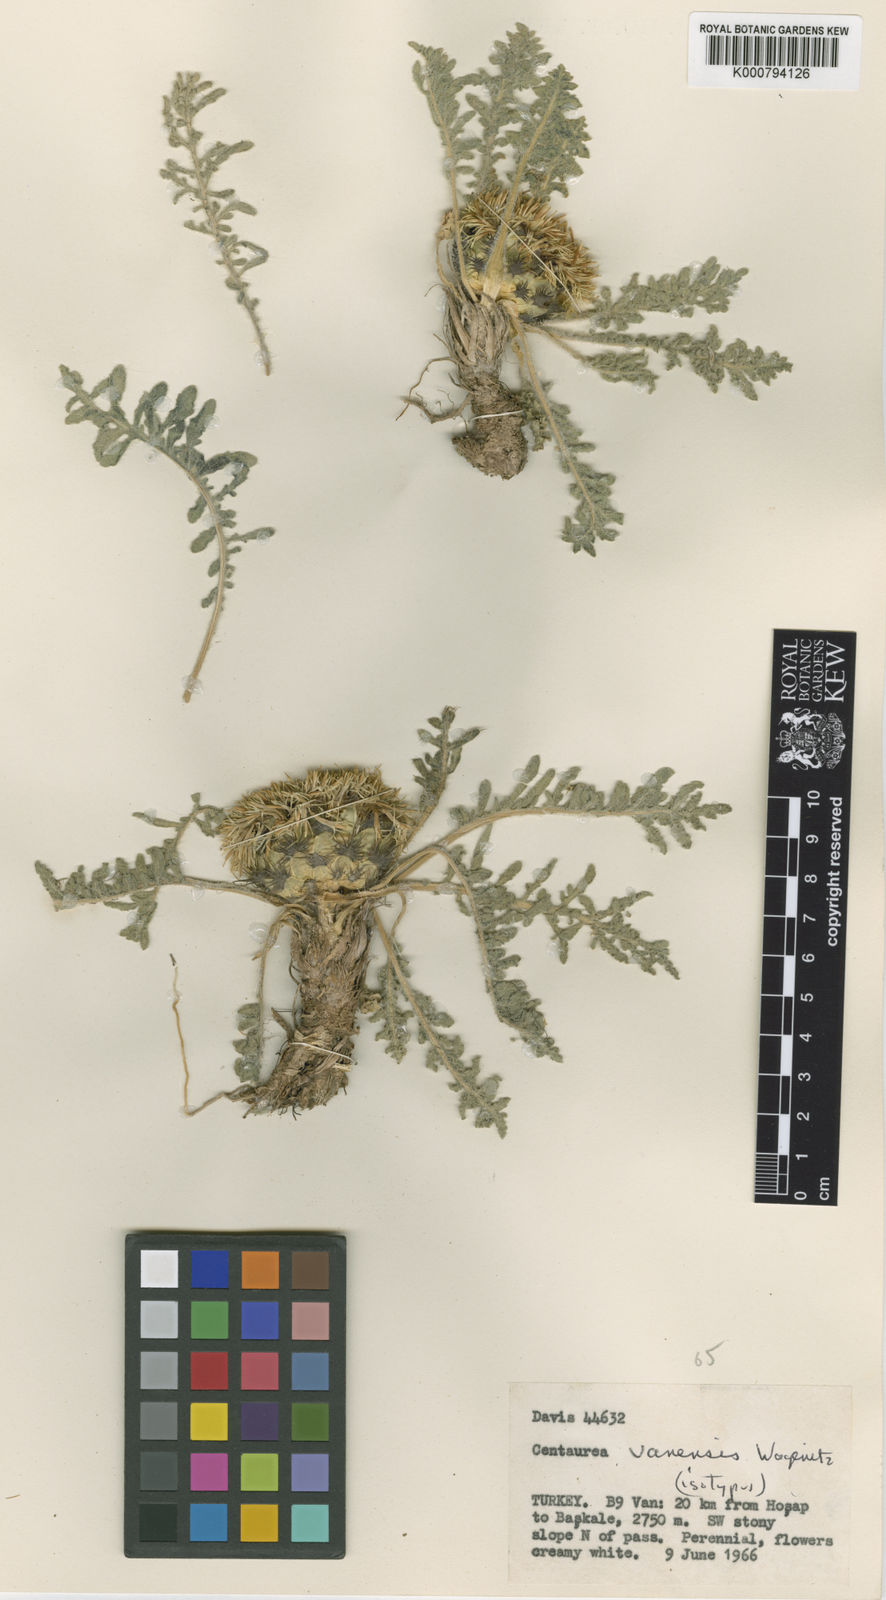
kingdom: Plantae
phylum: Tracheophyta
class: Magnoliopsida
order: Asterales
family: Asteraceae
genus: Centaurea
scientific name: Centaurea vanensis
